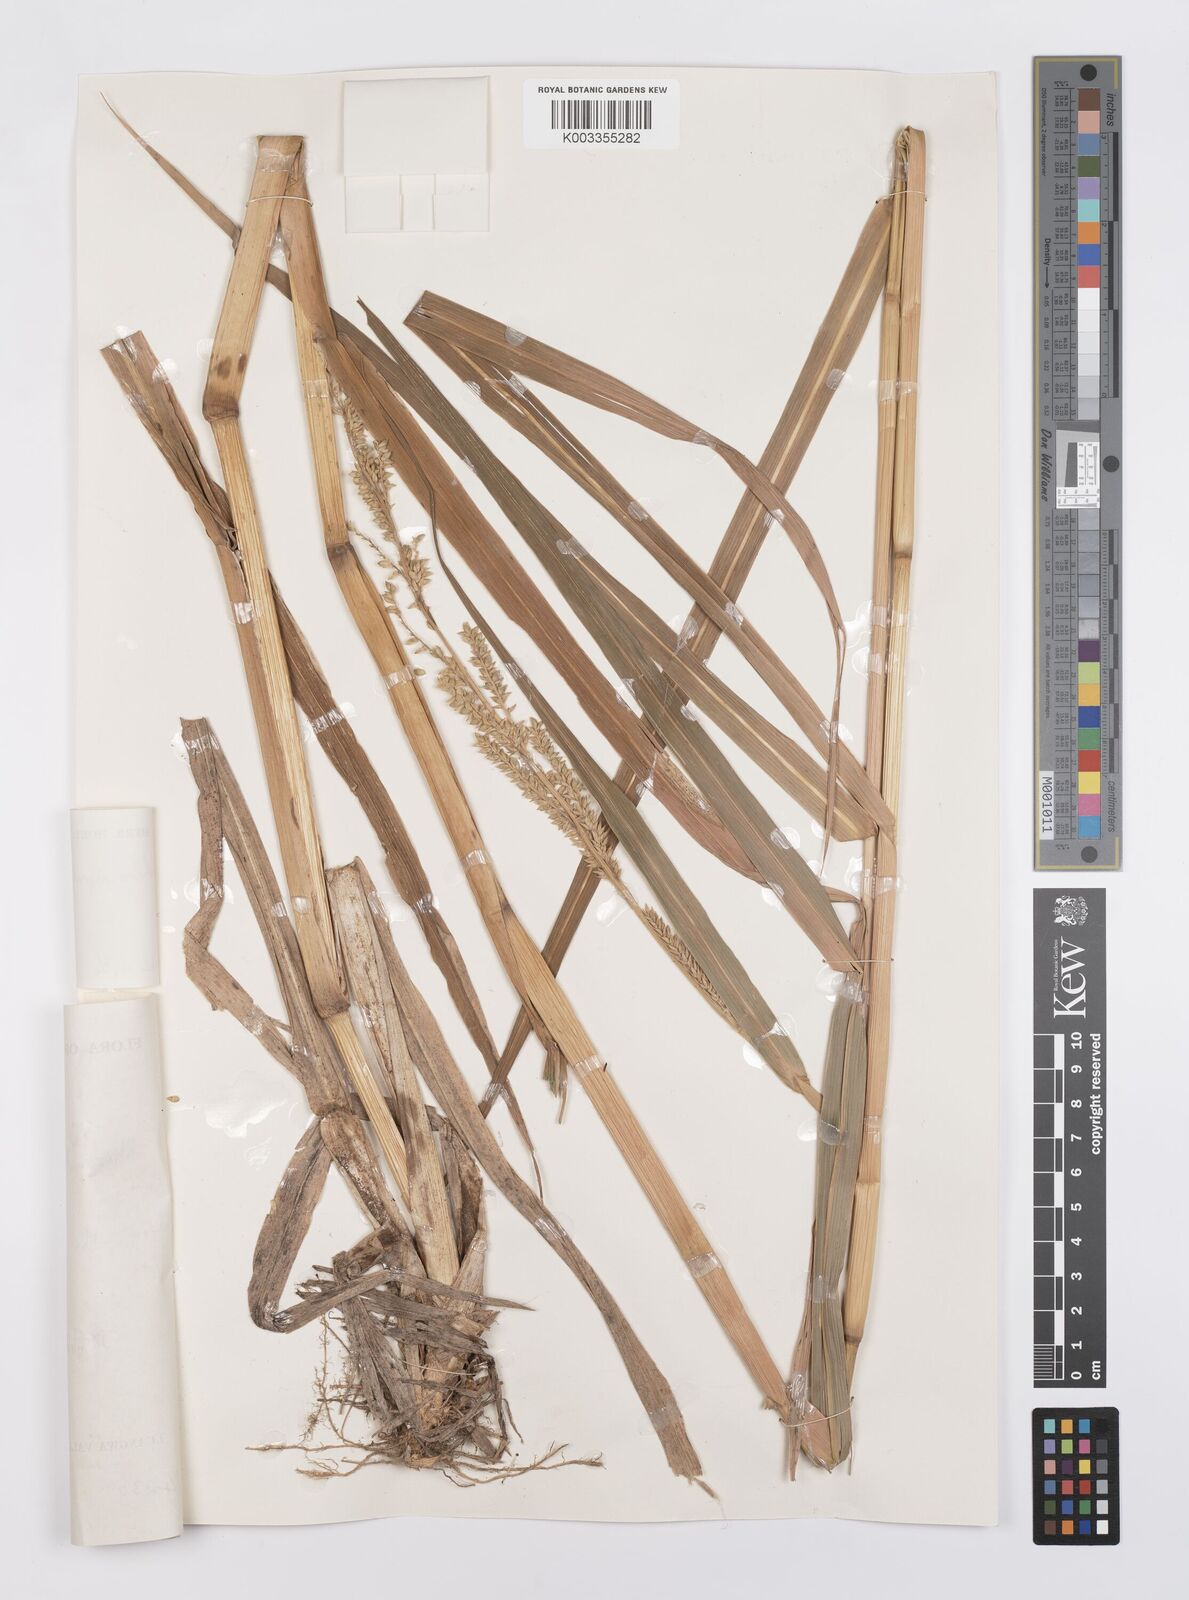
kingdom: Plantae
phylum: Tracheophyta
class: Liliopsida
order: Poales
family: Poaceae
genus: Echinochloa
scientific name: Echinochloa pyramidalis
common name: Antelope grass
